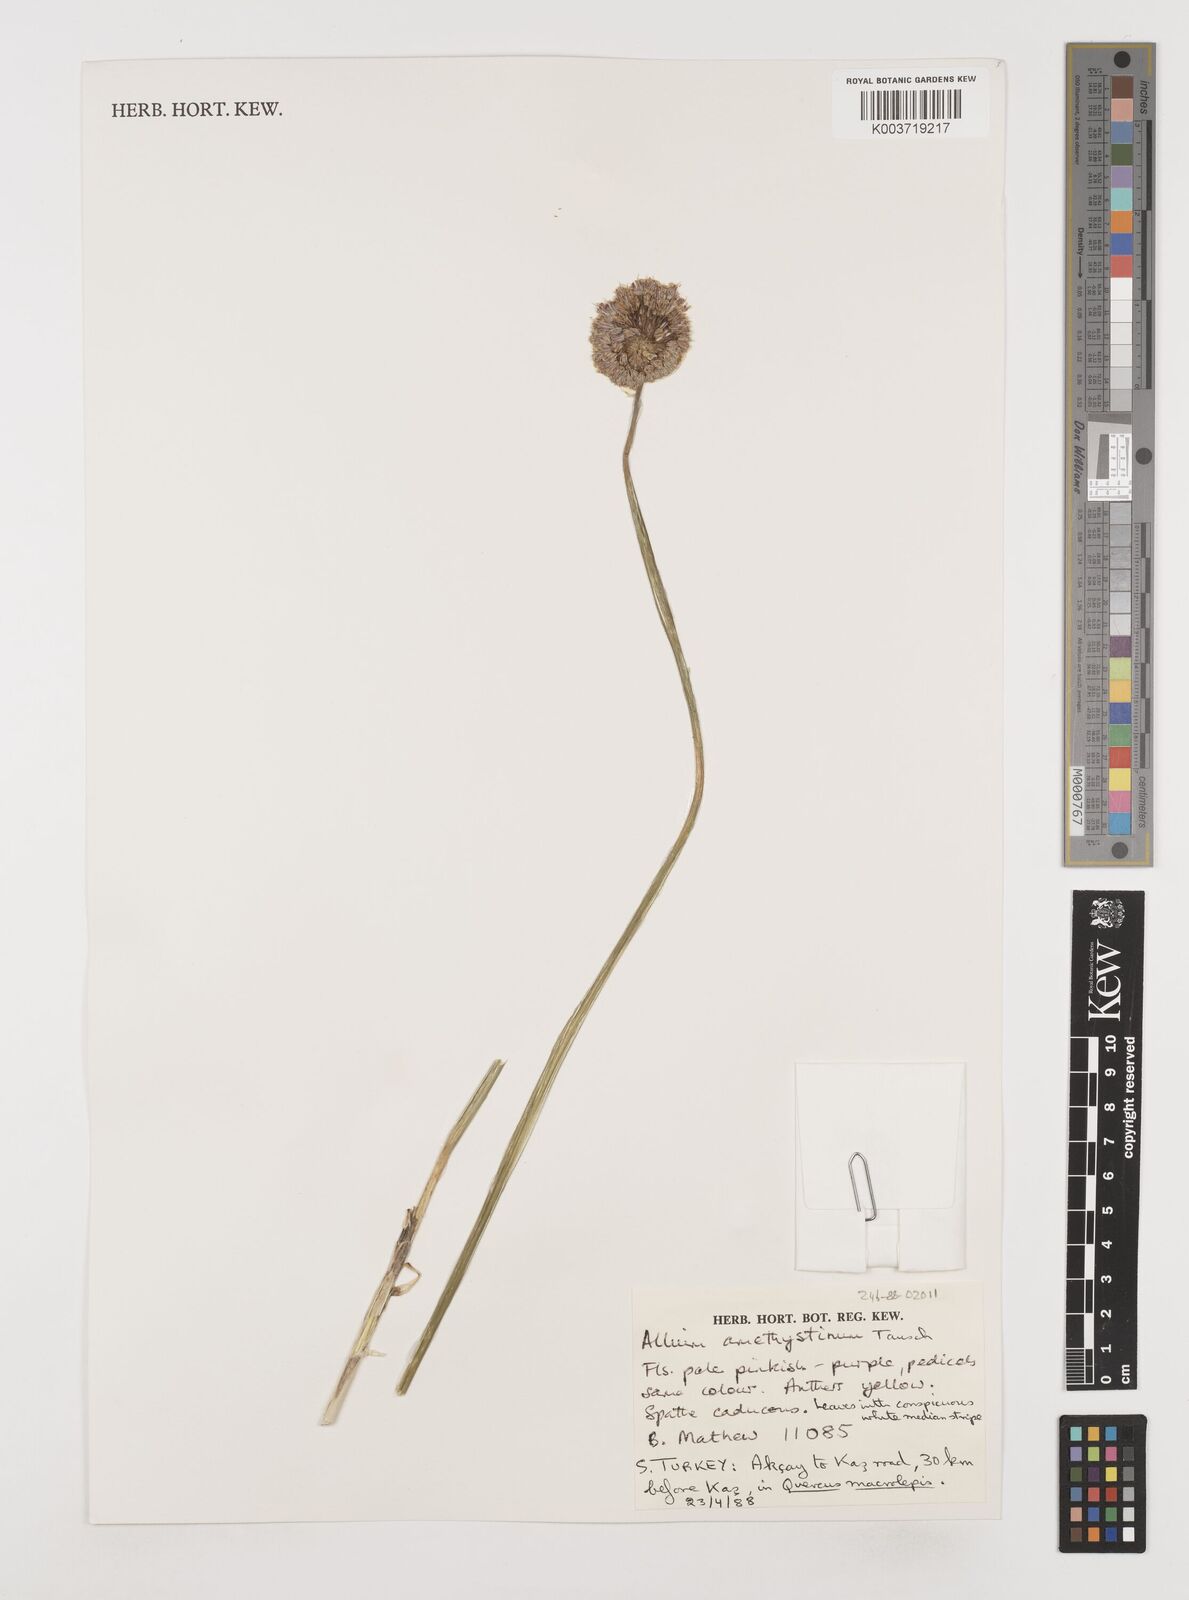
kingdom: Plantae
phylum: Tracheophyta
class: Liliopsida
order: Asparagales
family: Amaryllidaceae
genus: Allium
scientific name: Allium amethystinum
